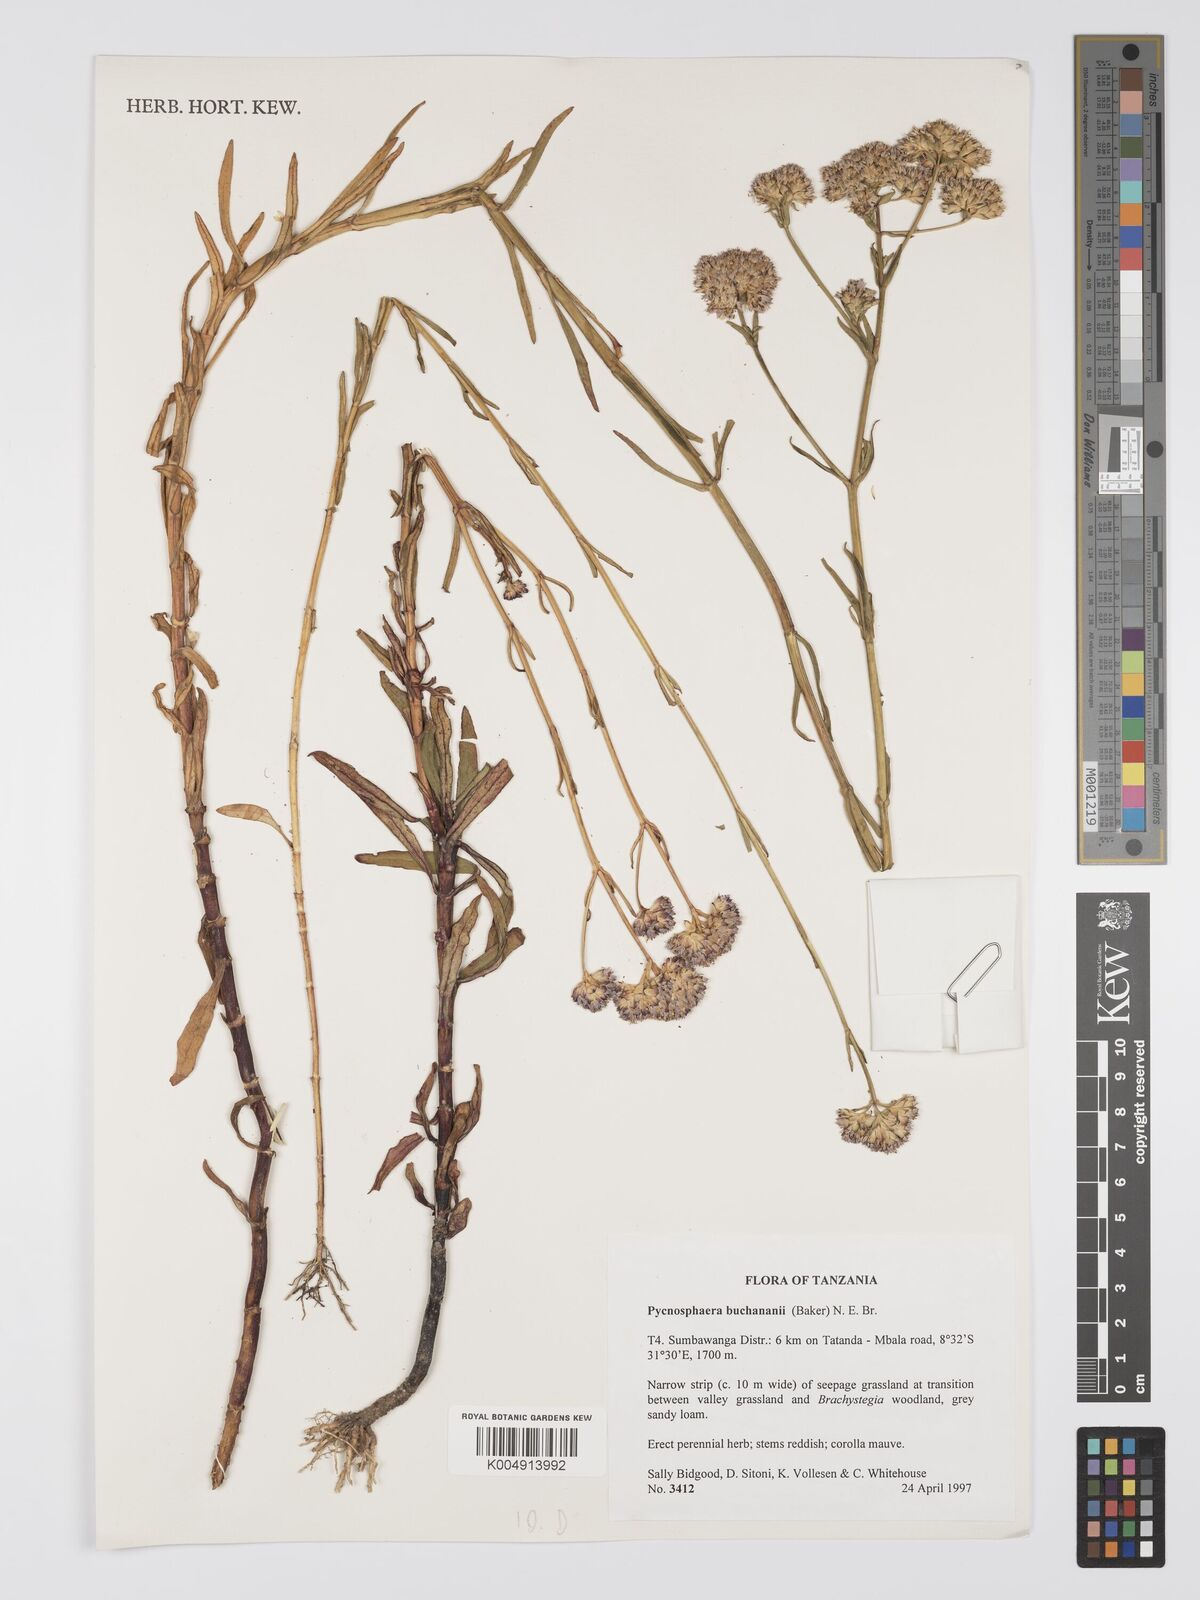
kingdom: Plantae
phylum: Tracheophyta
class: Magnoliopsida
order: Gentianales
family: Gentianaceae
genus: Pycnosphaera
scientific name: Pycnosphaera buchananii
